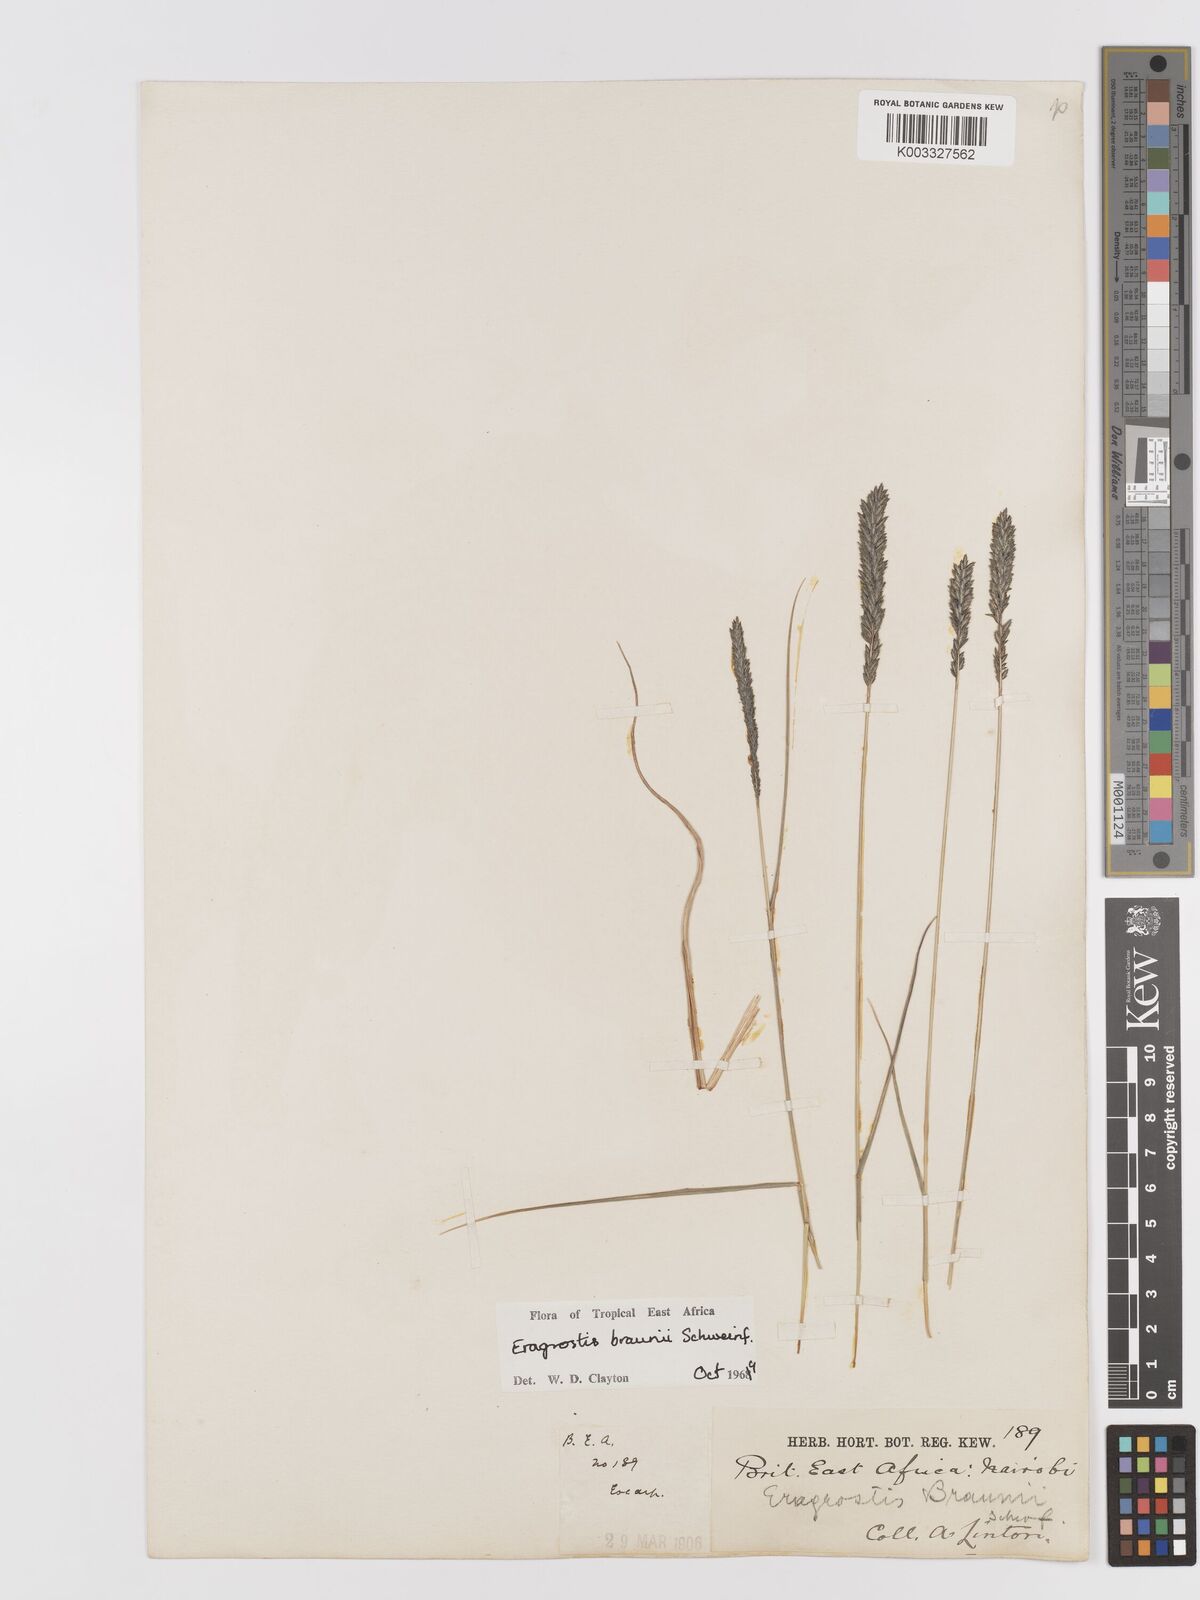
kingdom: Plantae
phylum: Tracheophyta
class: Liliopsida
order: Poales
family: Poaceae
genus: Eragrostis
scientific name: Eragrostis braunii
